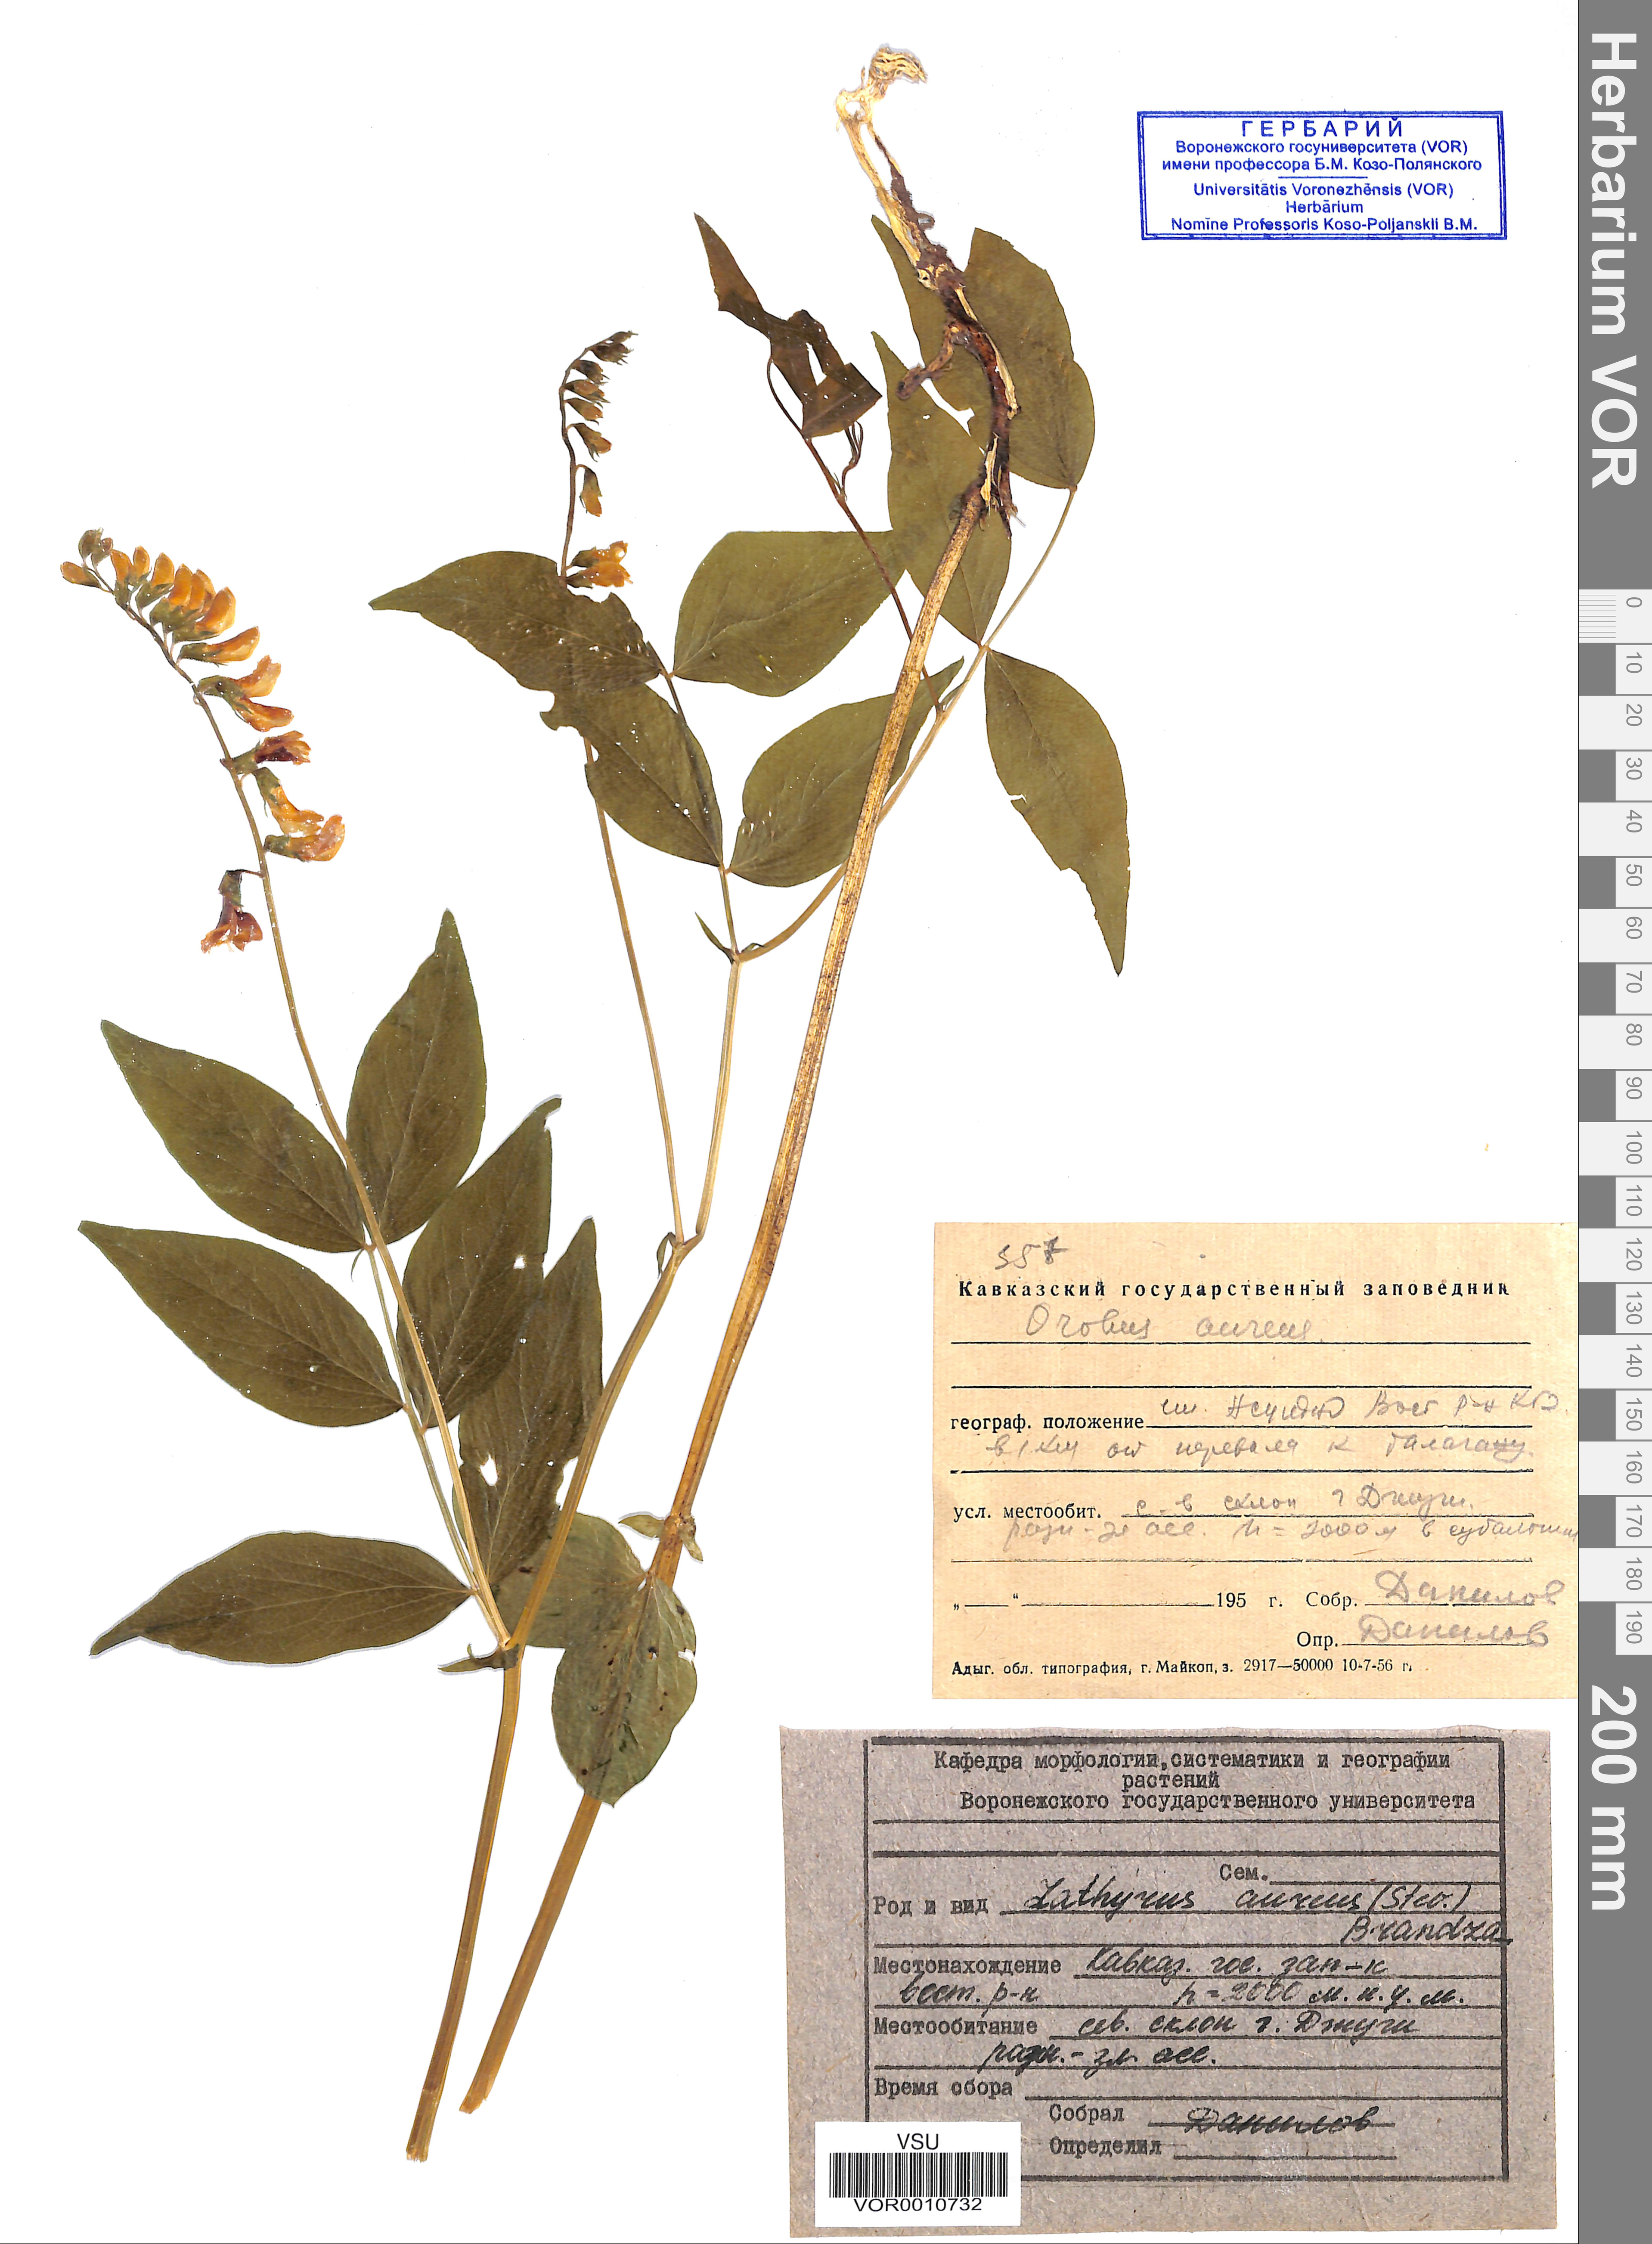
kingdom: Plantae
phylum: Tracheophyta
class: Magnoliopsida
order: Fabales
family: Fabaceae
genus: Lathyrus
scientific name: Lathyrus aureus
